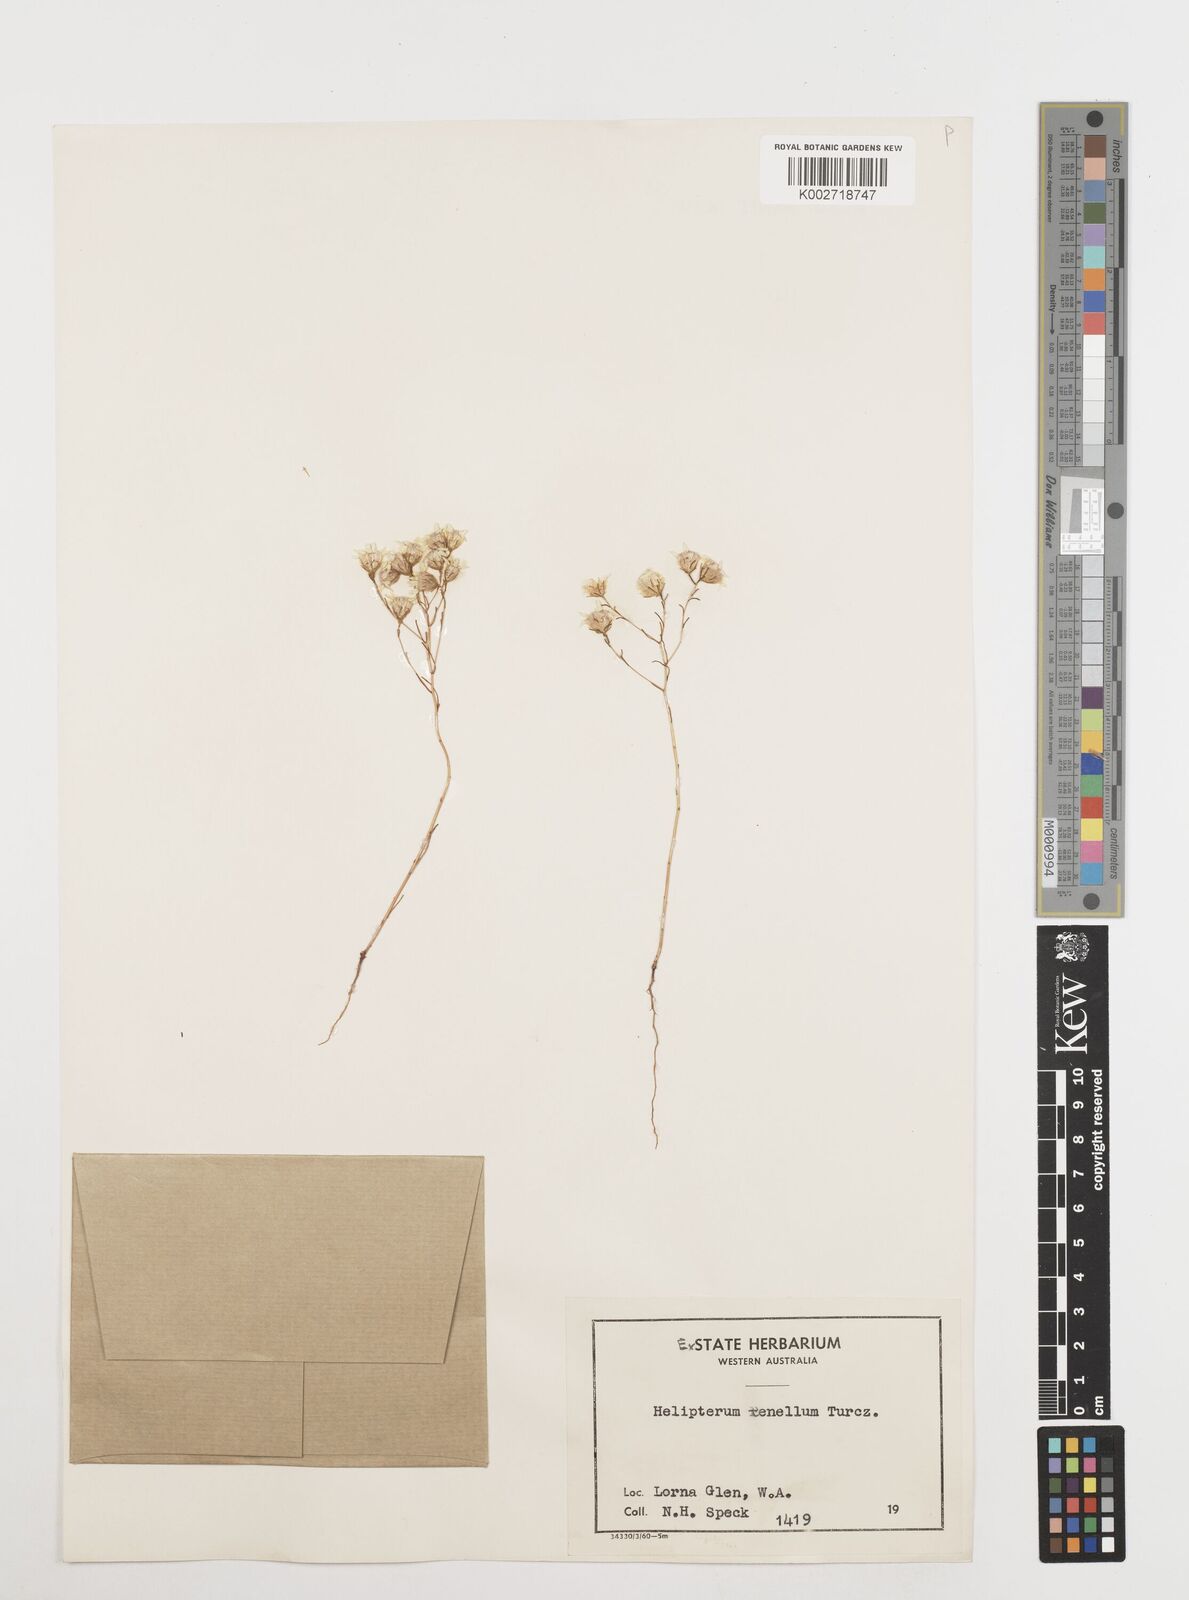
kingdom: Plantae
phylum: Tracheophyta
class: Magnoliopsida
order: Asterales
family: Asteraceae
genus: Erymophyllum
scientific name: Erymophyllum tenellum
